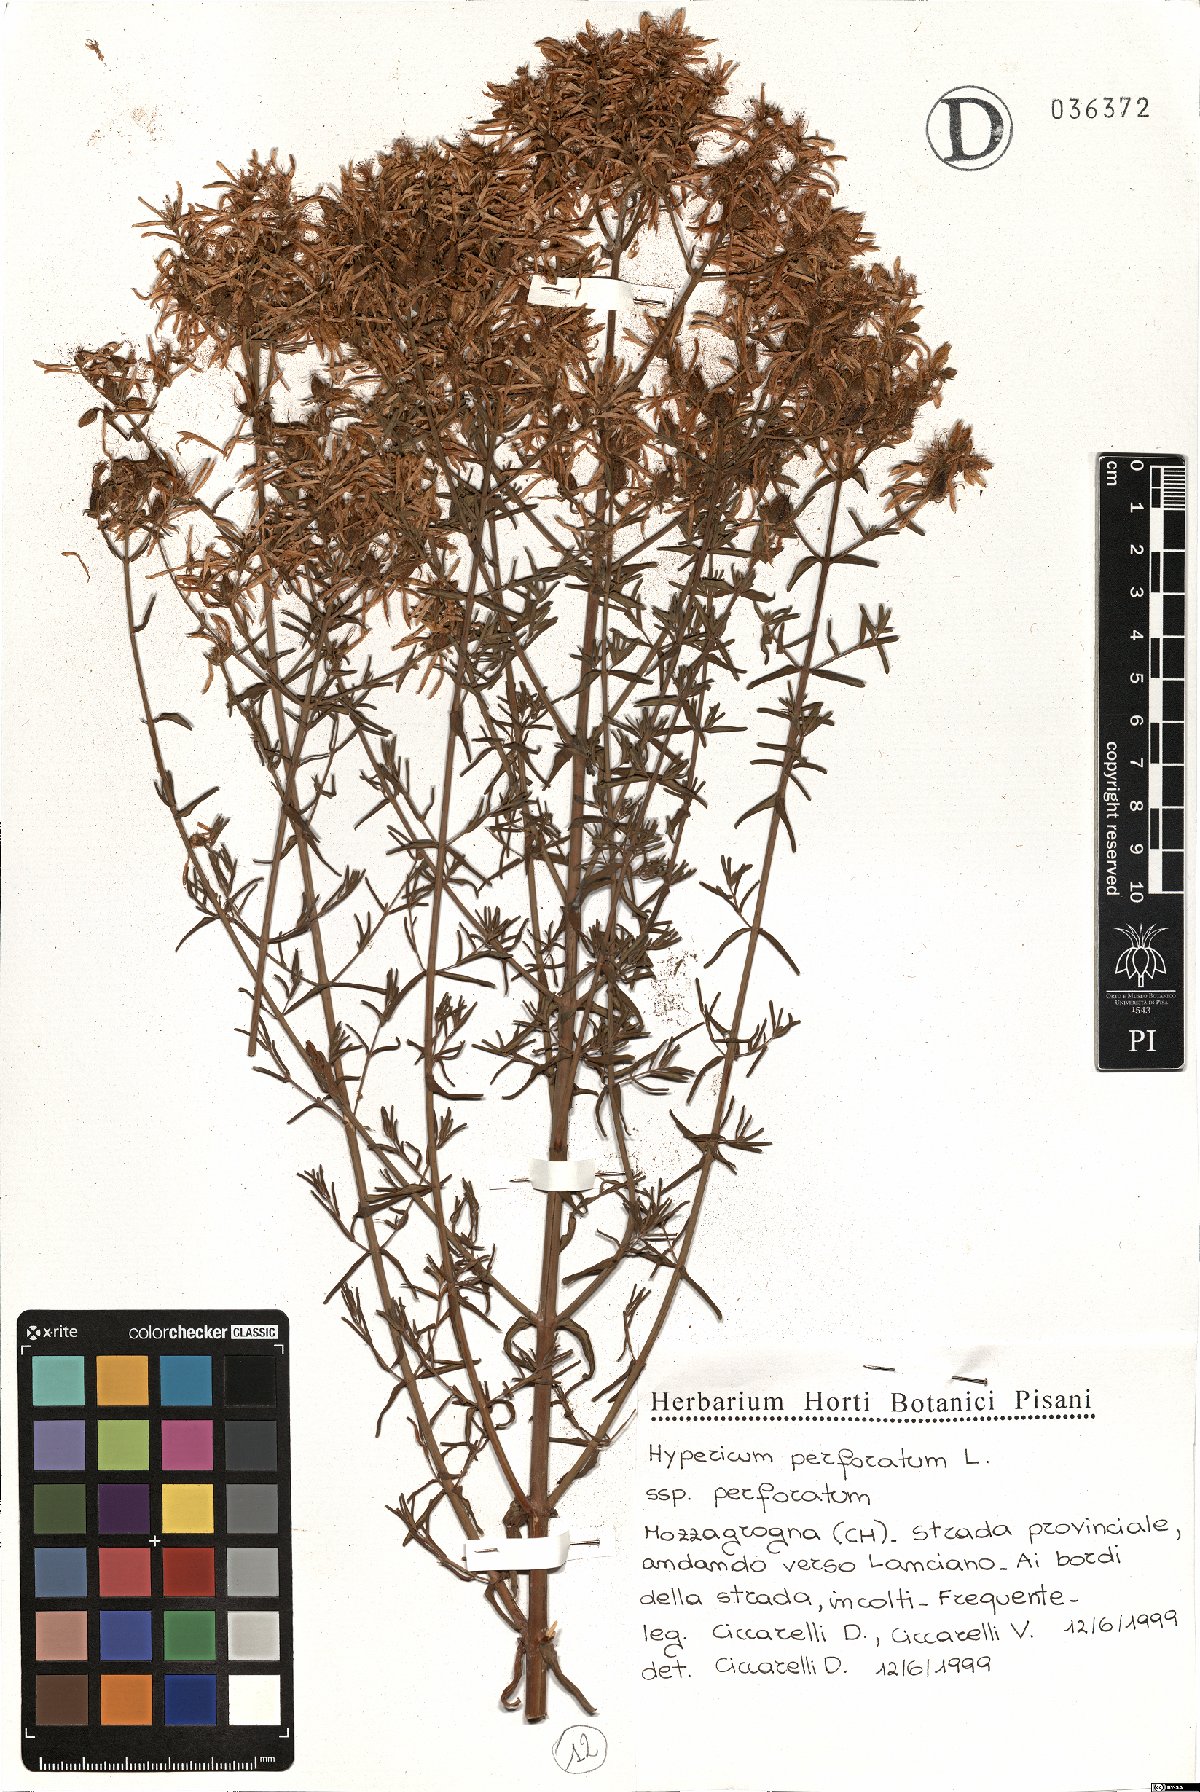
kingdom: Plantae
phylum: Tracheophyta
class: Magnoliopsida
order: Malpighiales
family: Hypericaceae
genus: Hypericum
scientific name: Hypericum perforatum
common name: Common st. johnswort
